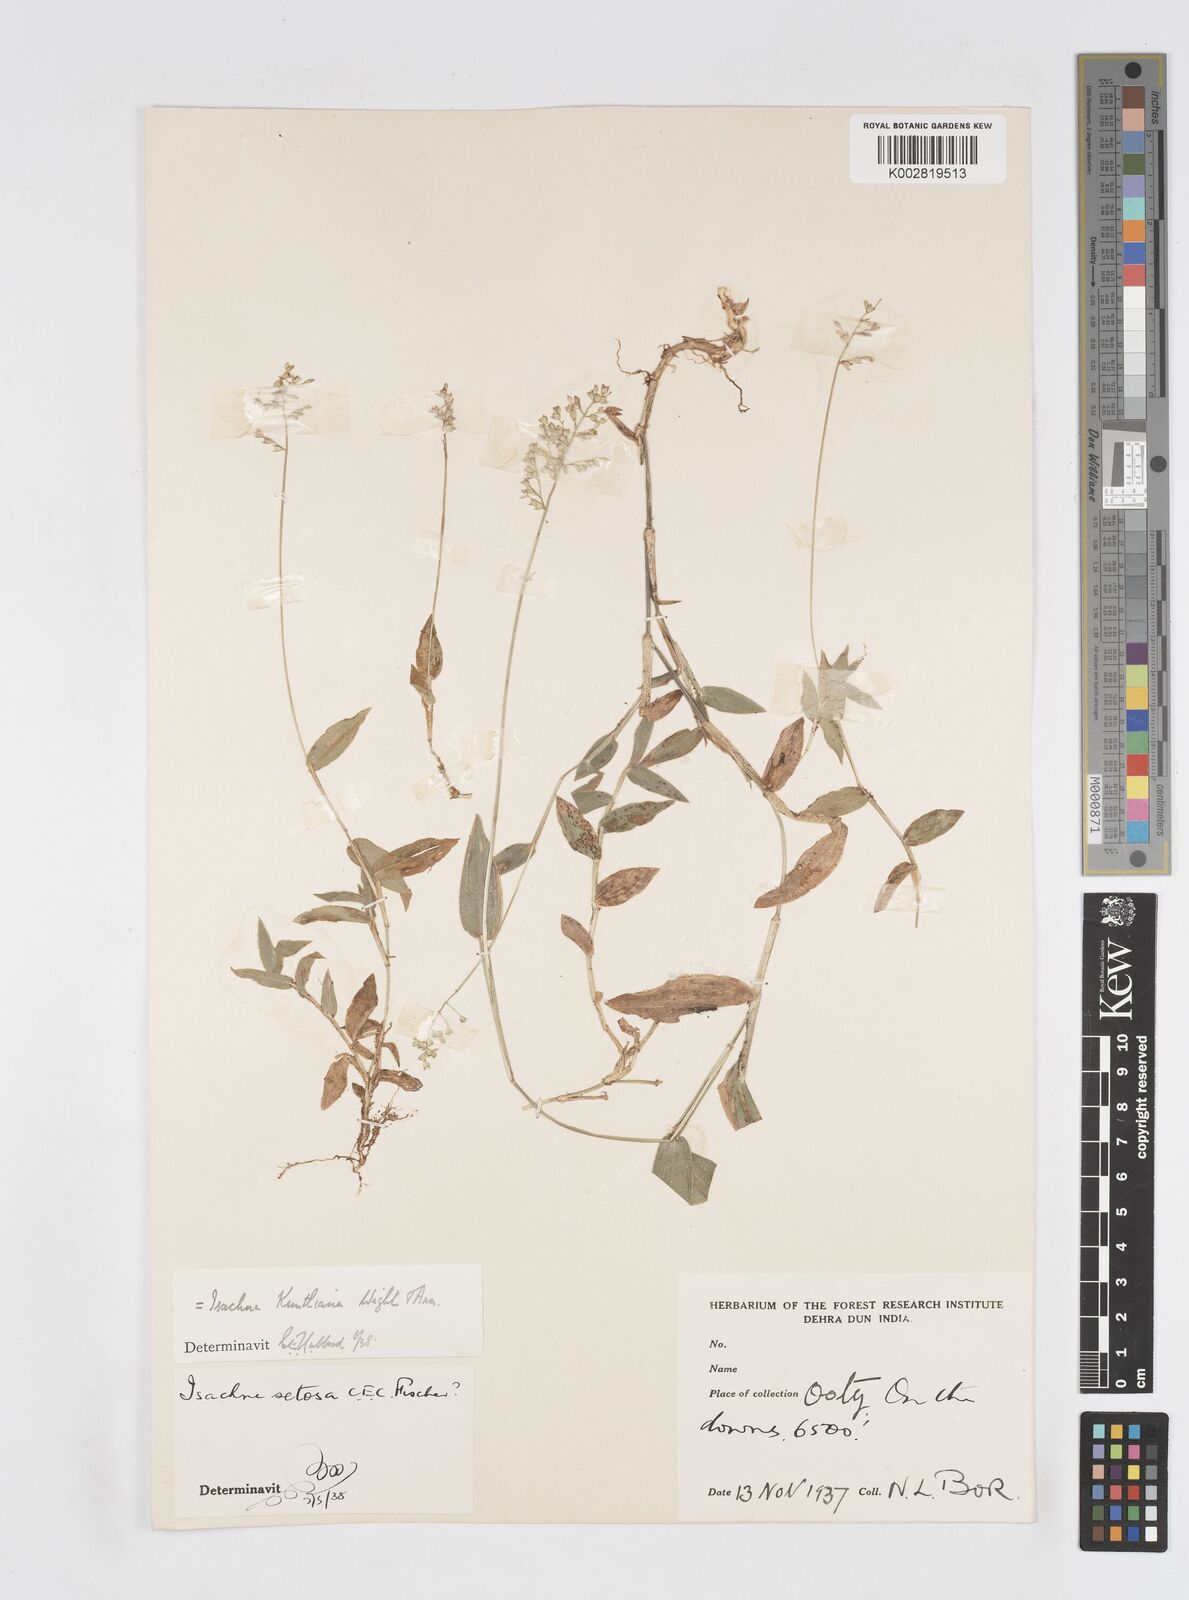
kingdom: Plantae
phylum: Tracheophyta
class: Liliopsida
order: Poales
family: Poaceae
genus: Isachne
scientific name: Isachne kunthiana
